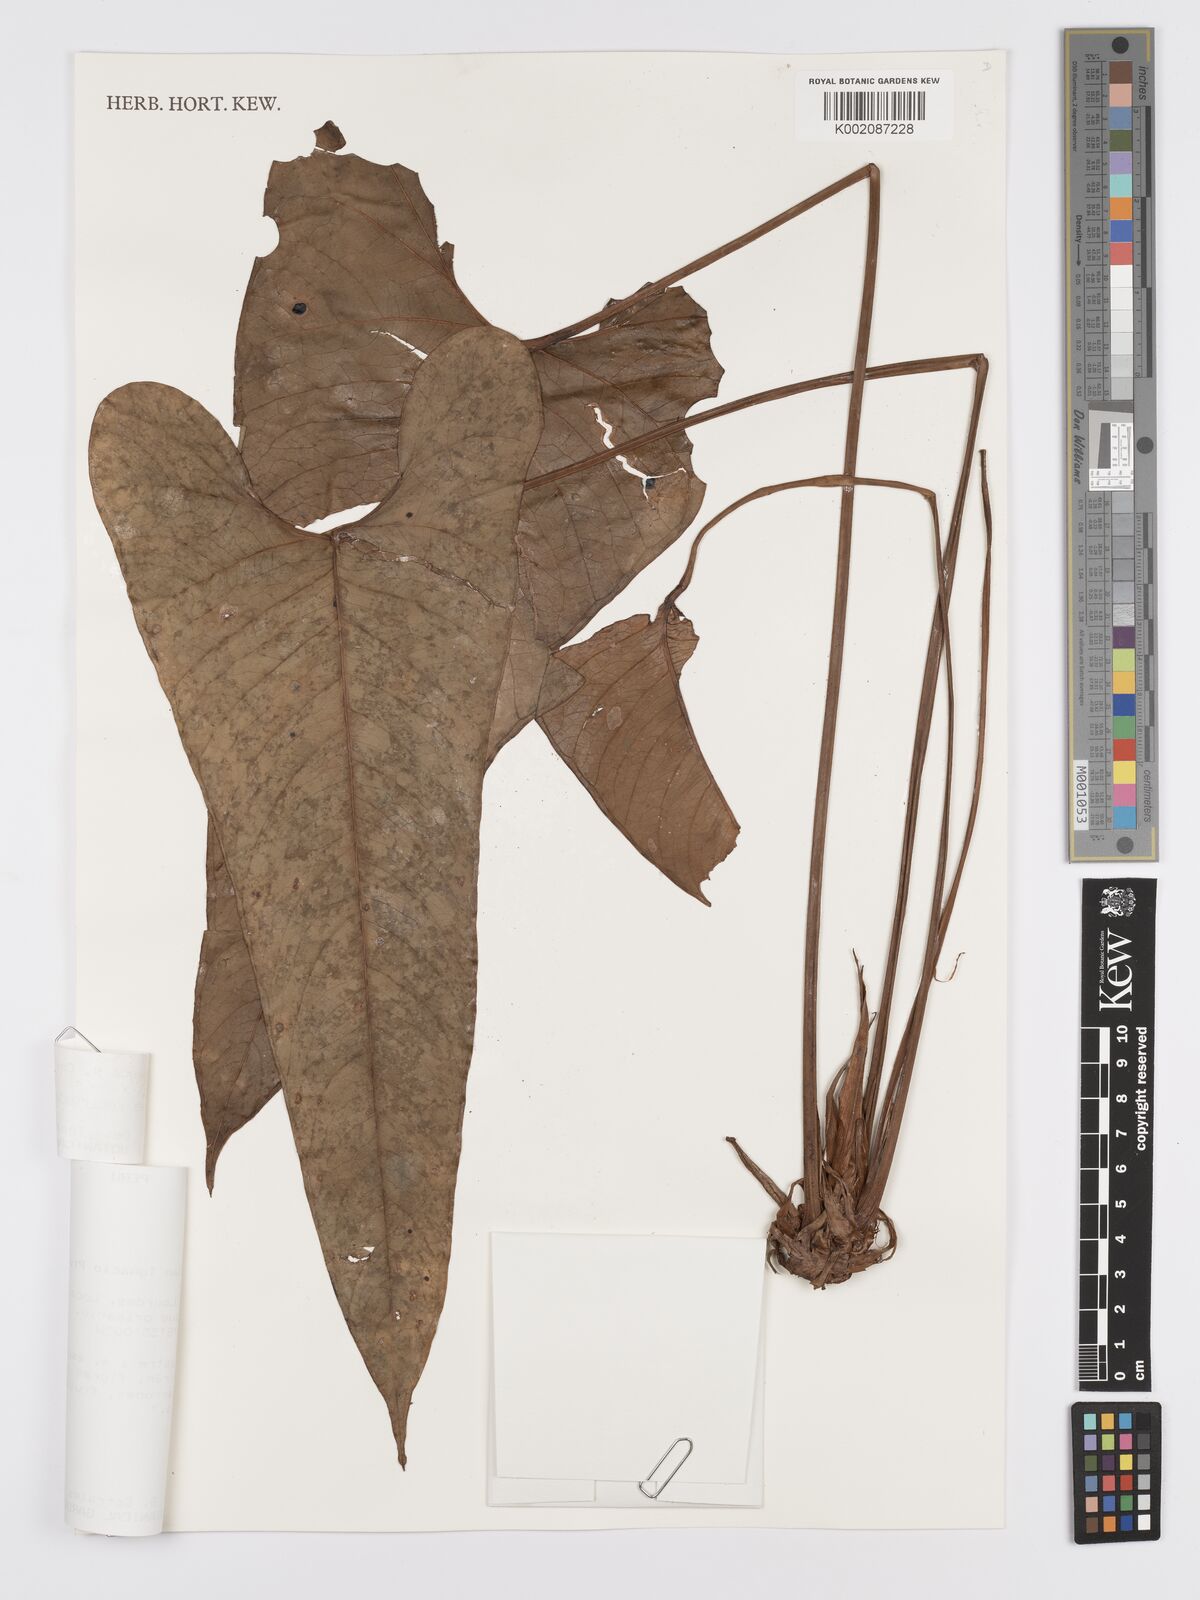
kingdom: Plantae
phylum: Tracheophyta
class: Liliopsida
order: Alismatales
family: Araceae
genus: Anthurium
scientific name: Anthurium variegatum
